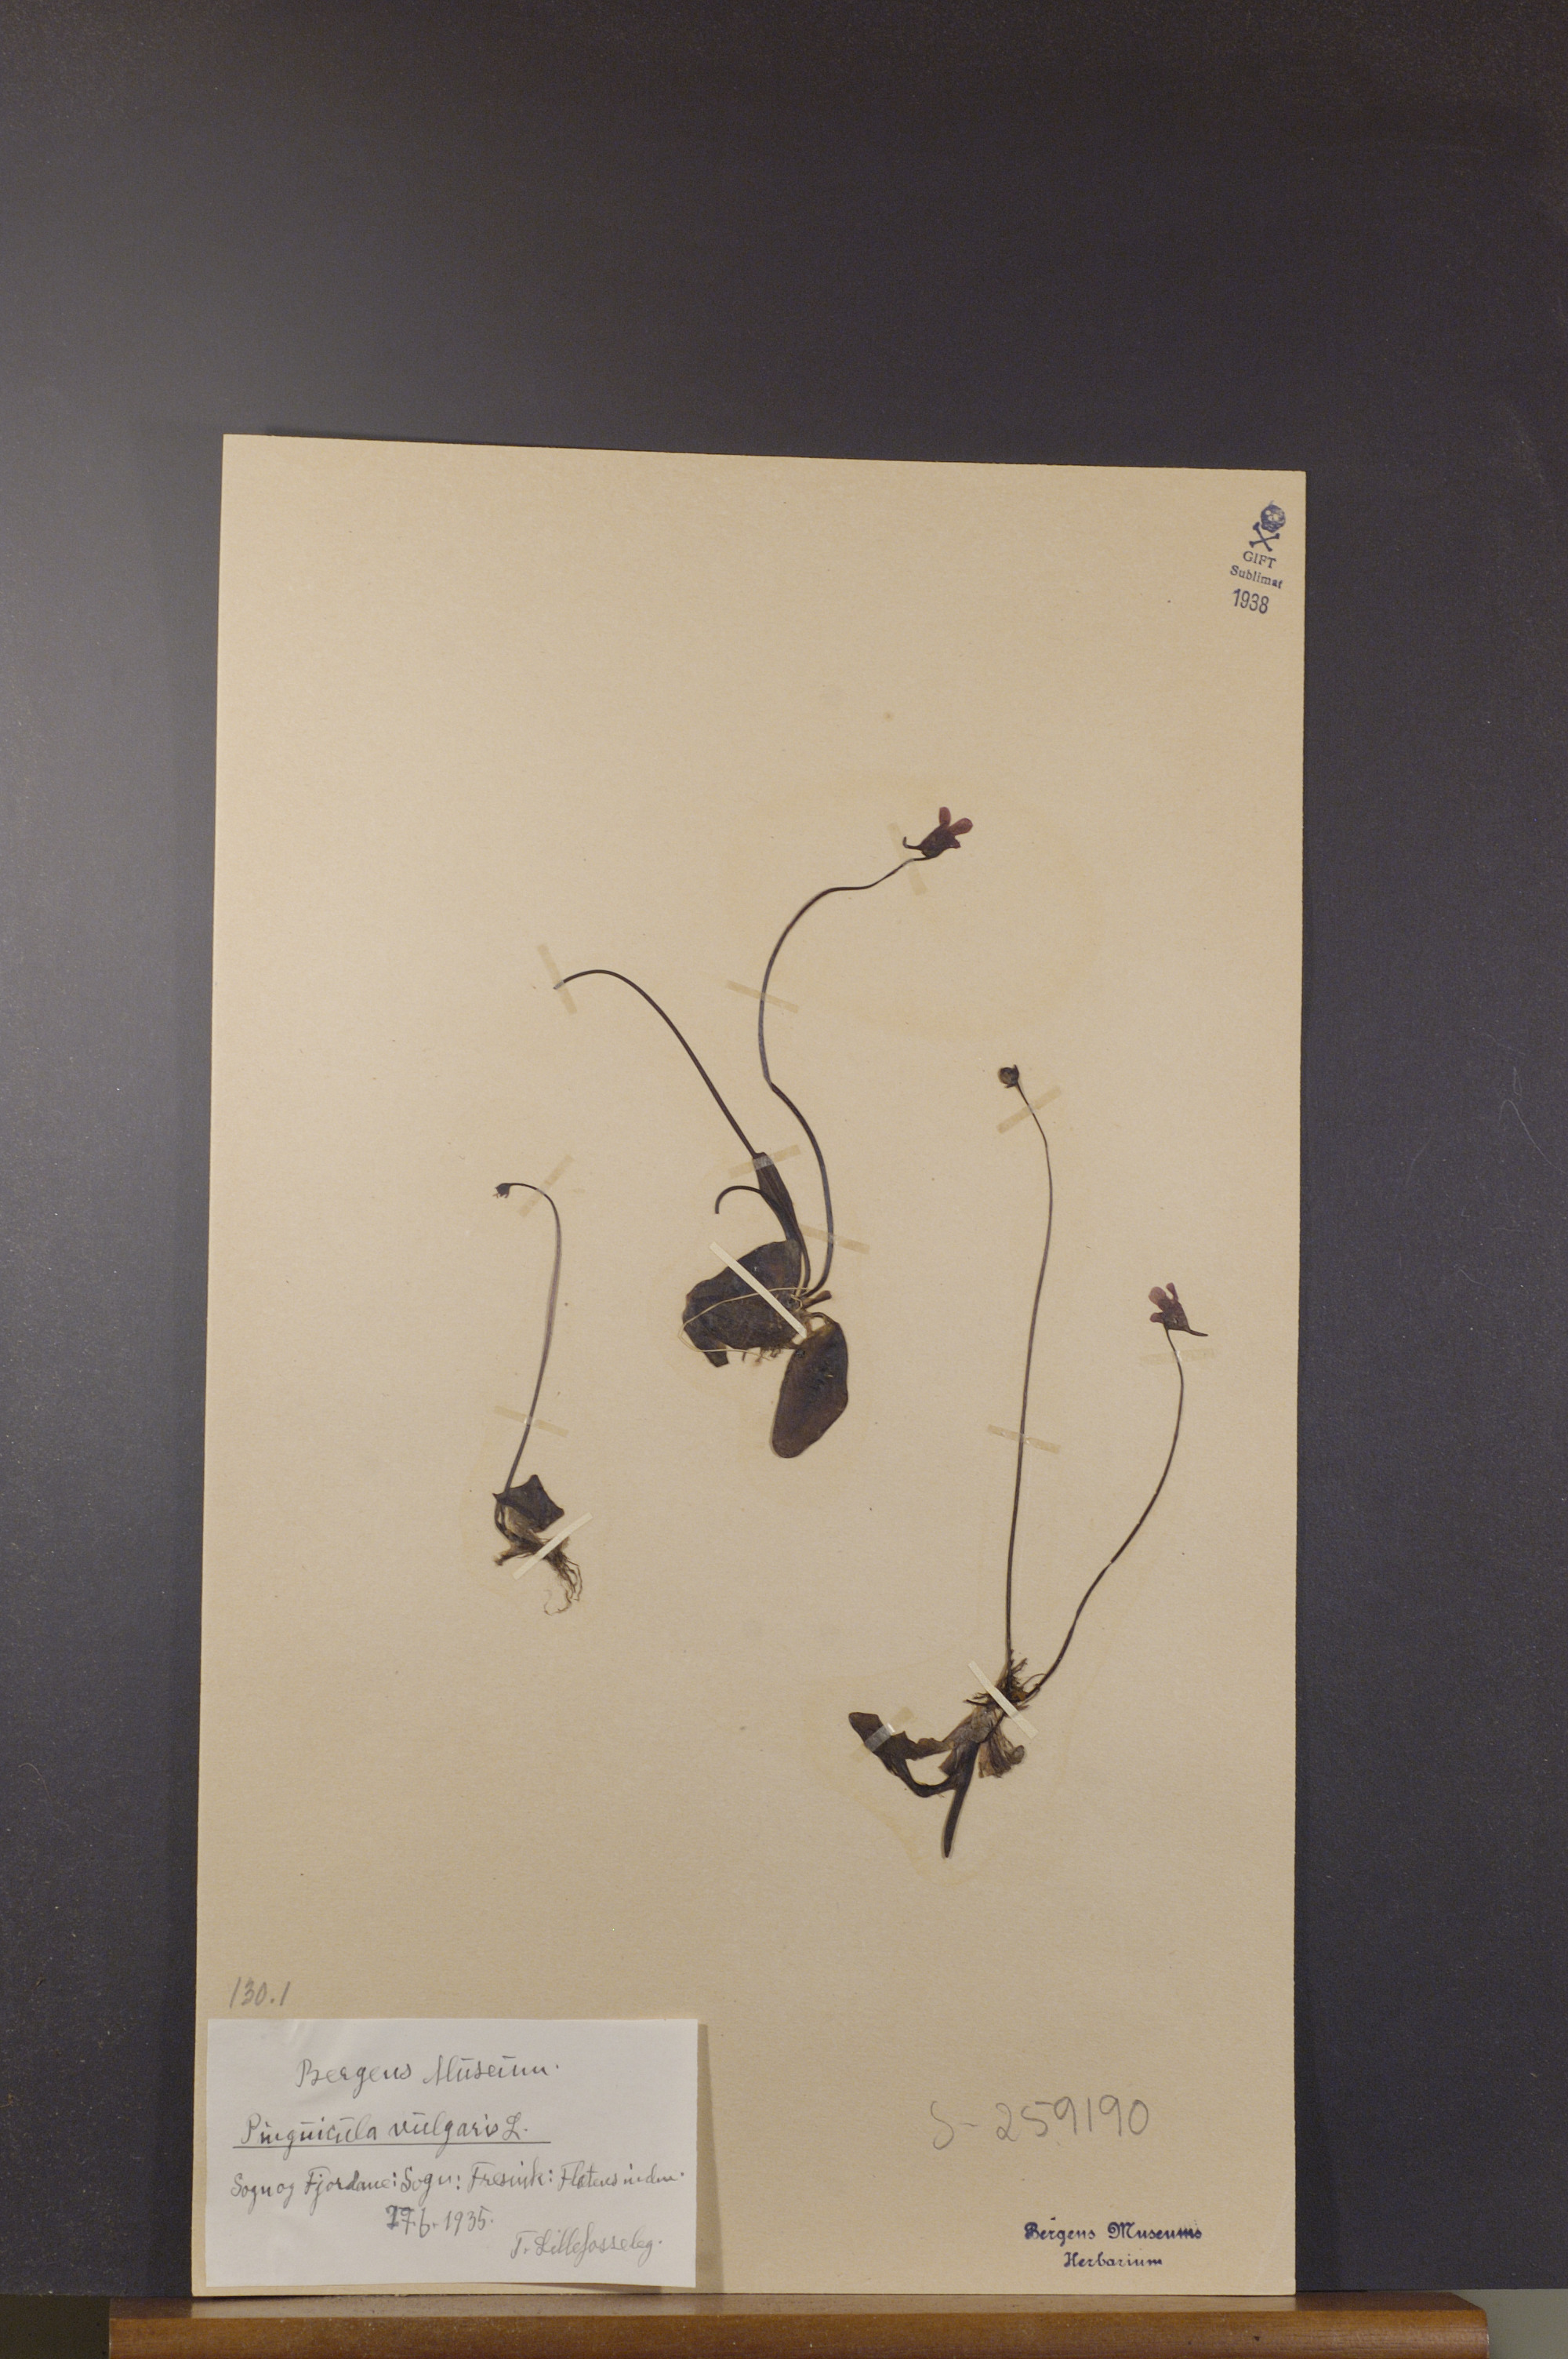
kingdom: Plantae
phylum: Tracheophyta
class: Magnoliopsida
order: Lamiales
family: Lentibulariaceae
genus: Pinguicula
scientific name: Pinguicula vulgaris
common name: Common butterwort
